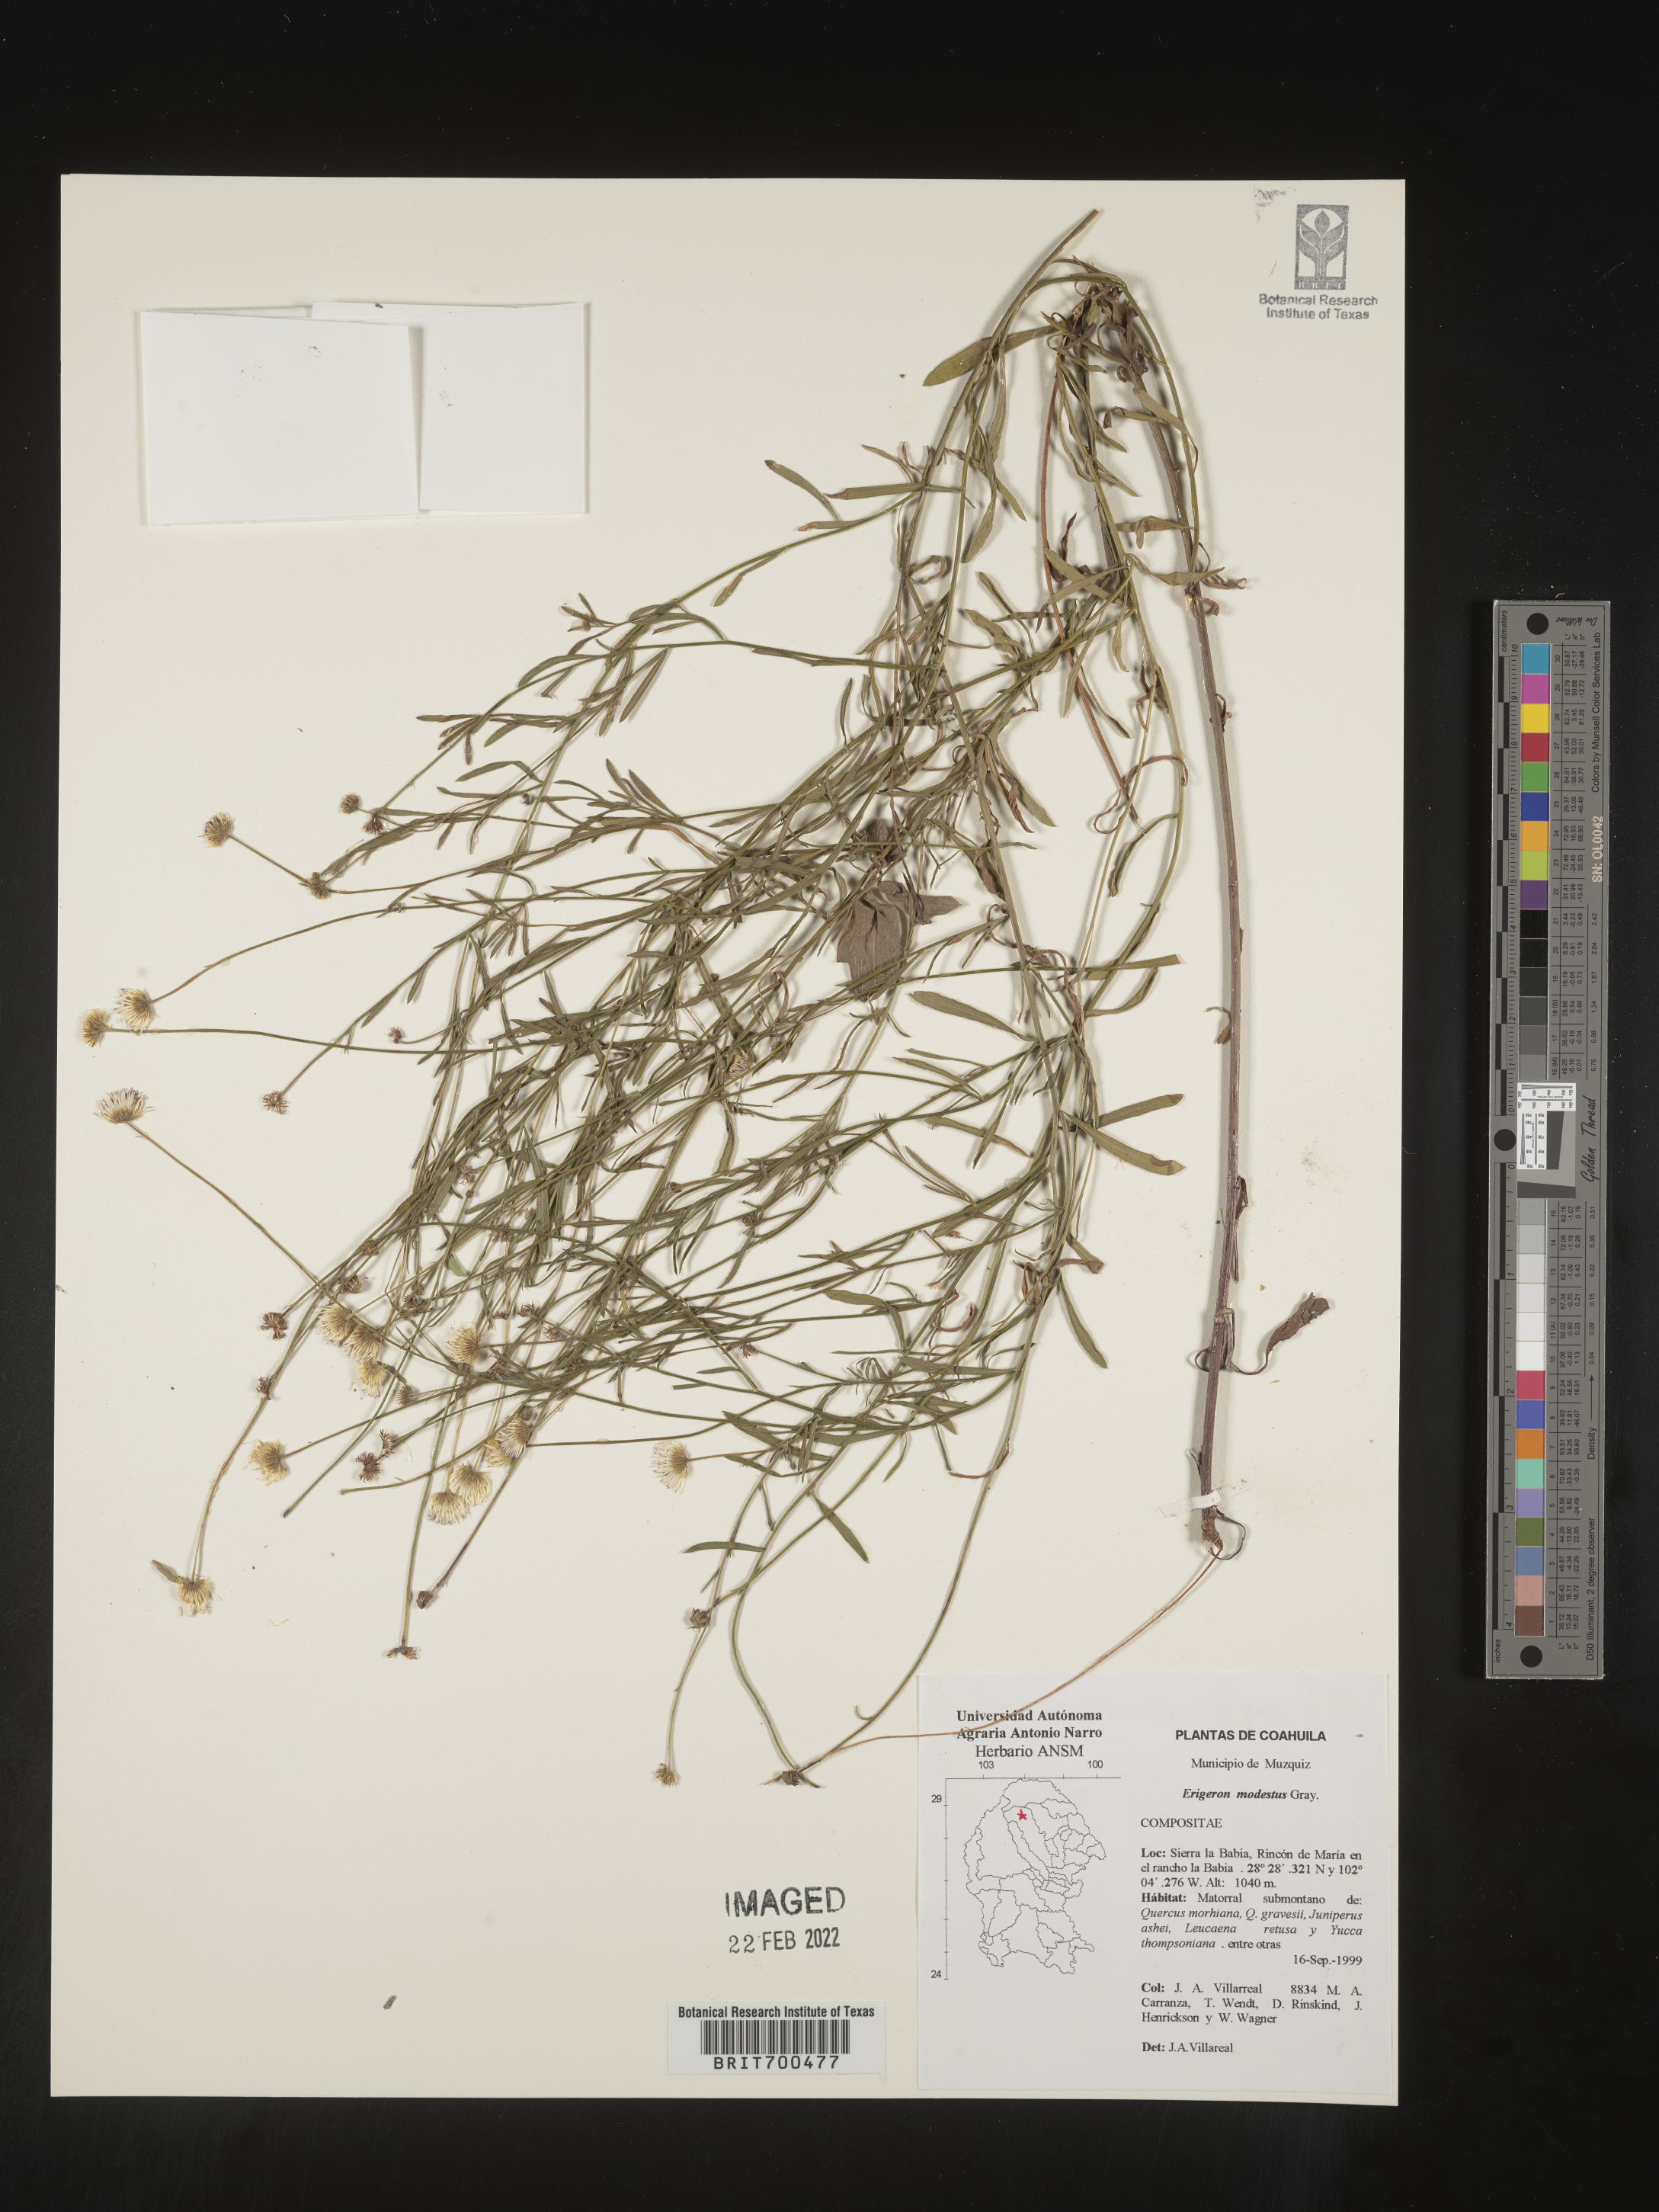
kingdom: Plantae
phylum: Tracheophyta
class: Magnoliopsida
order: Asterales
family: Asteraceae
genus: Erigeron
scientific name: Erigeron
